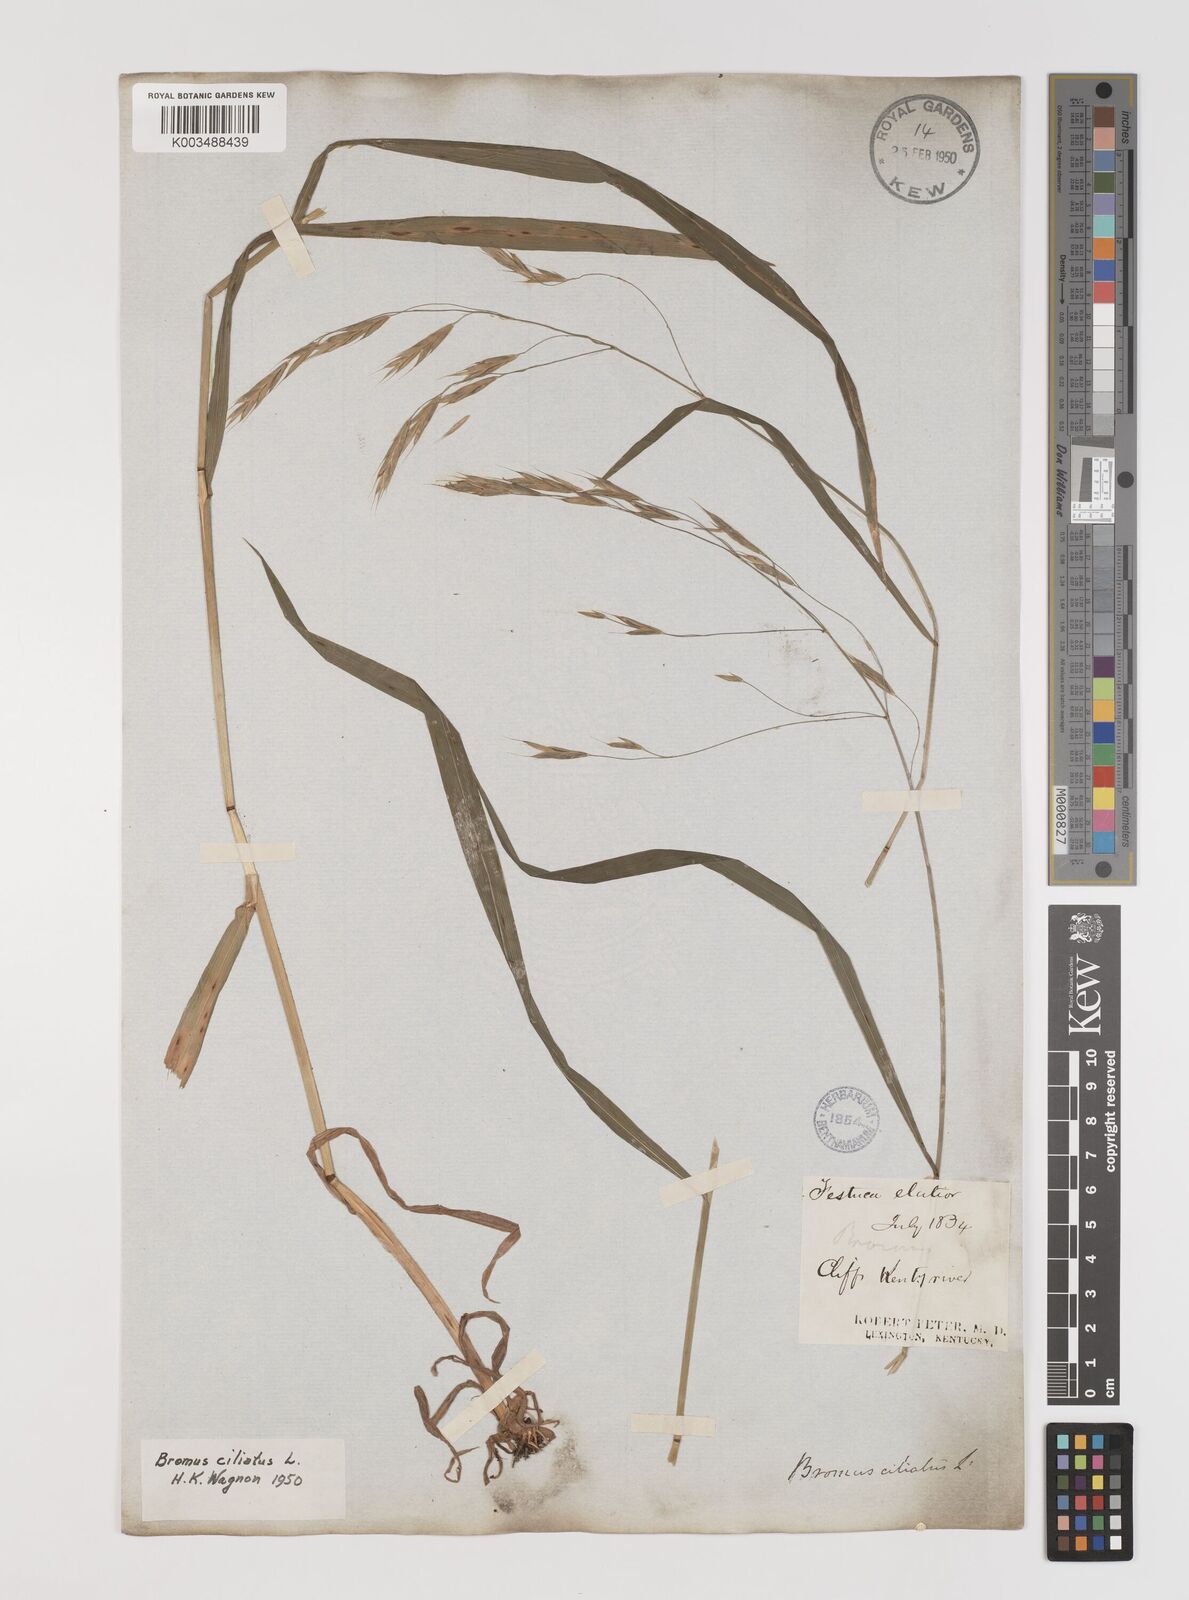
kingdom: Plantae
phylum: Tracheophyta
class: Liliopsida
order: Poales
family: Poaceae
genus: Bromus
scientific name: Bromus ciliatus
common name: Fringe brome
